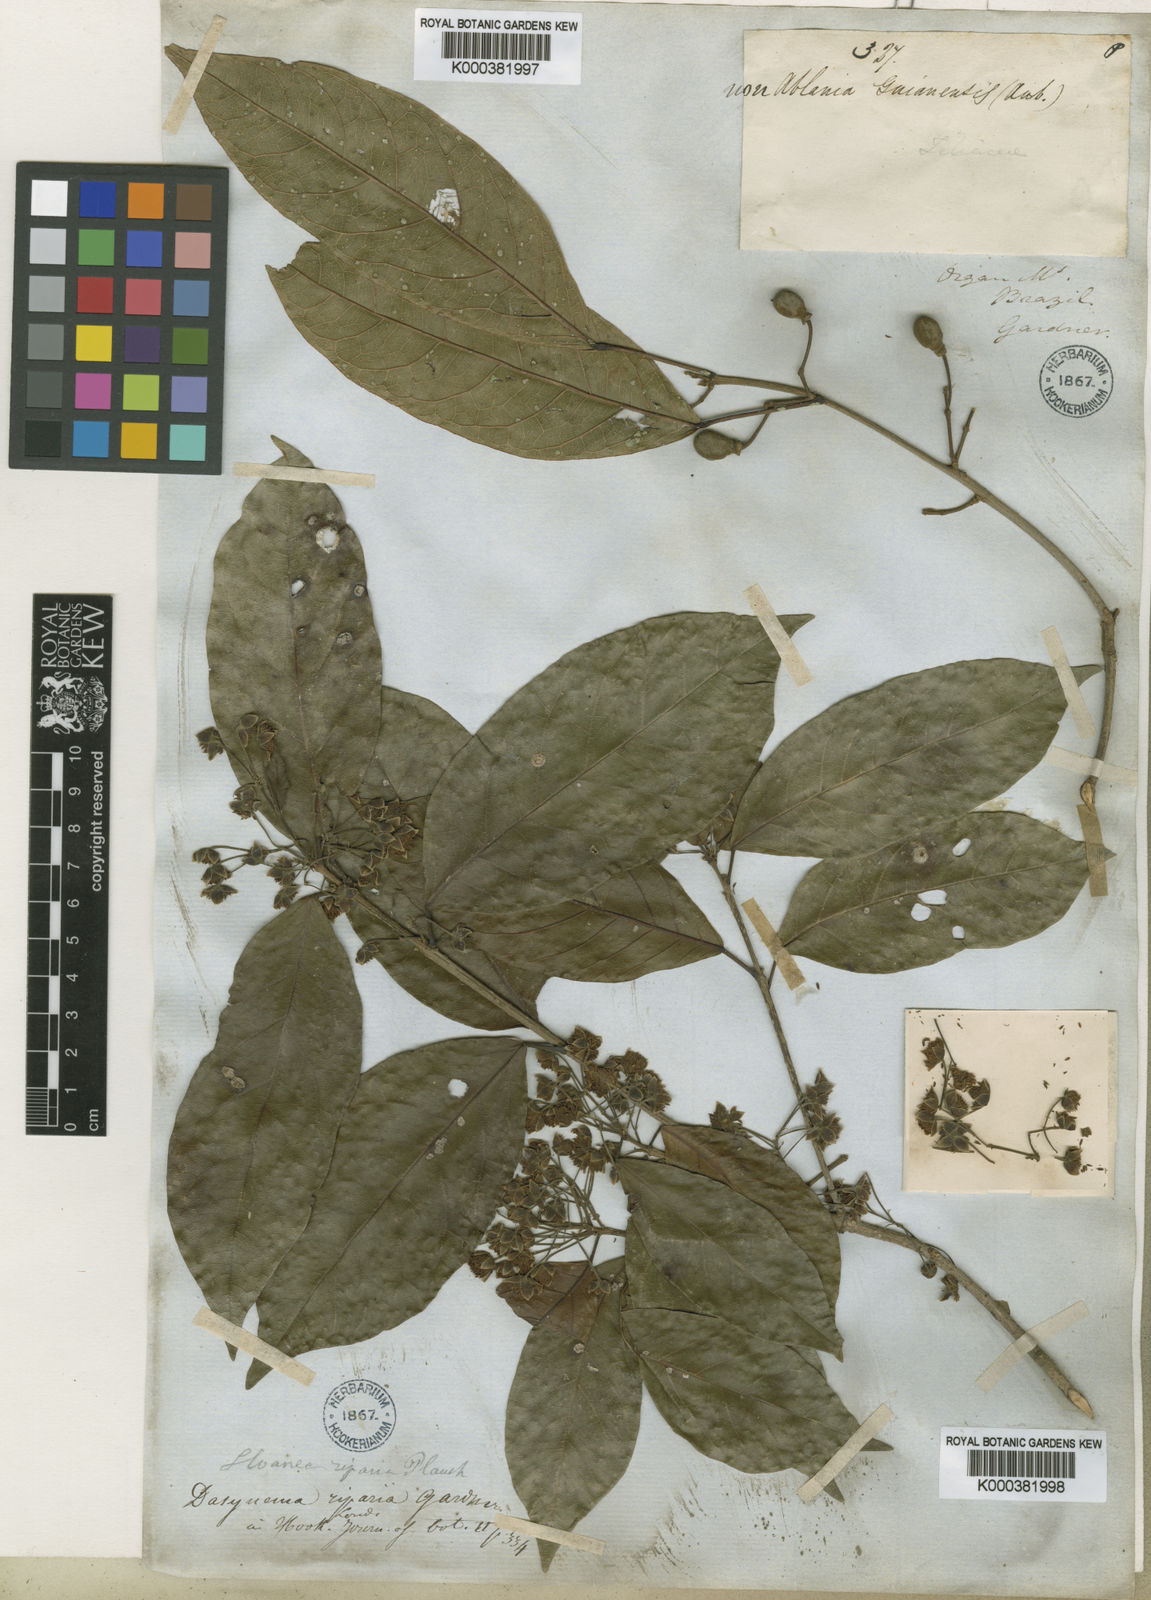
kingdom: Plantae
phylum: Tracheophyta
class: Magnoliopsida
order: Oxalidales
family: Elaeocarpaceae
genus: Sloanea
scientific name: Sloanea hirsuta
